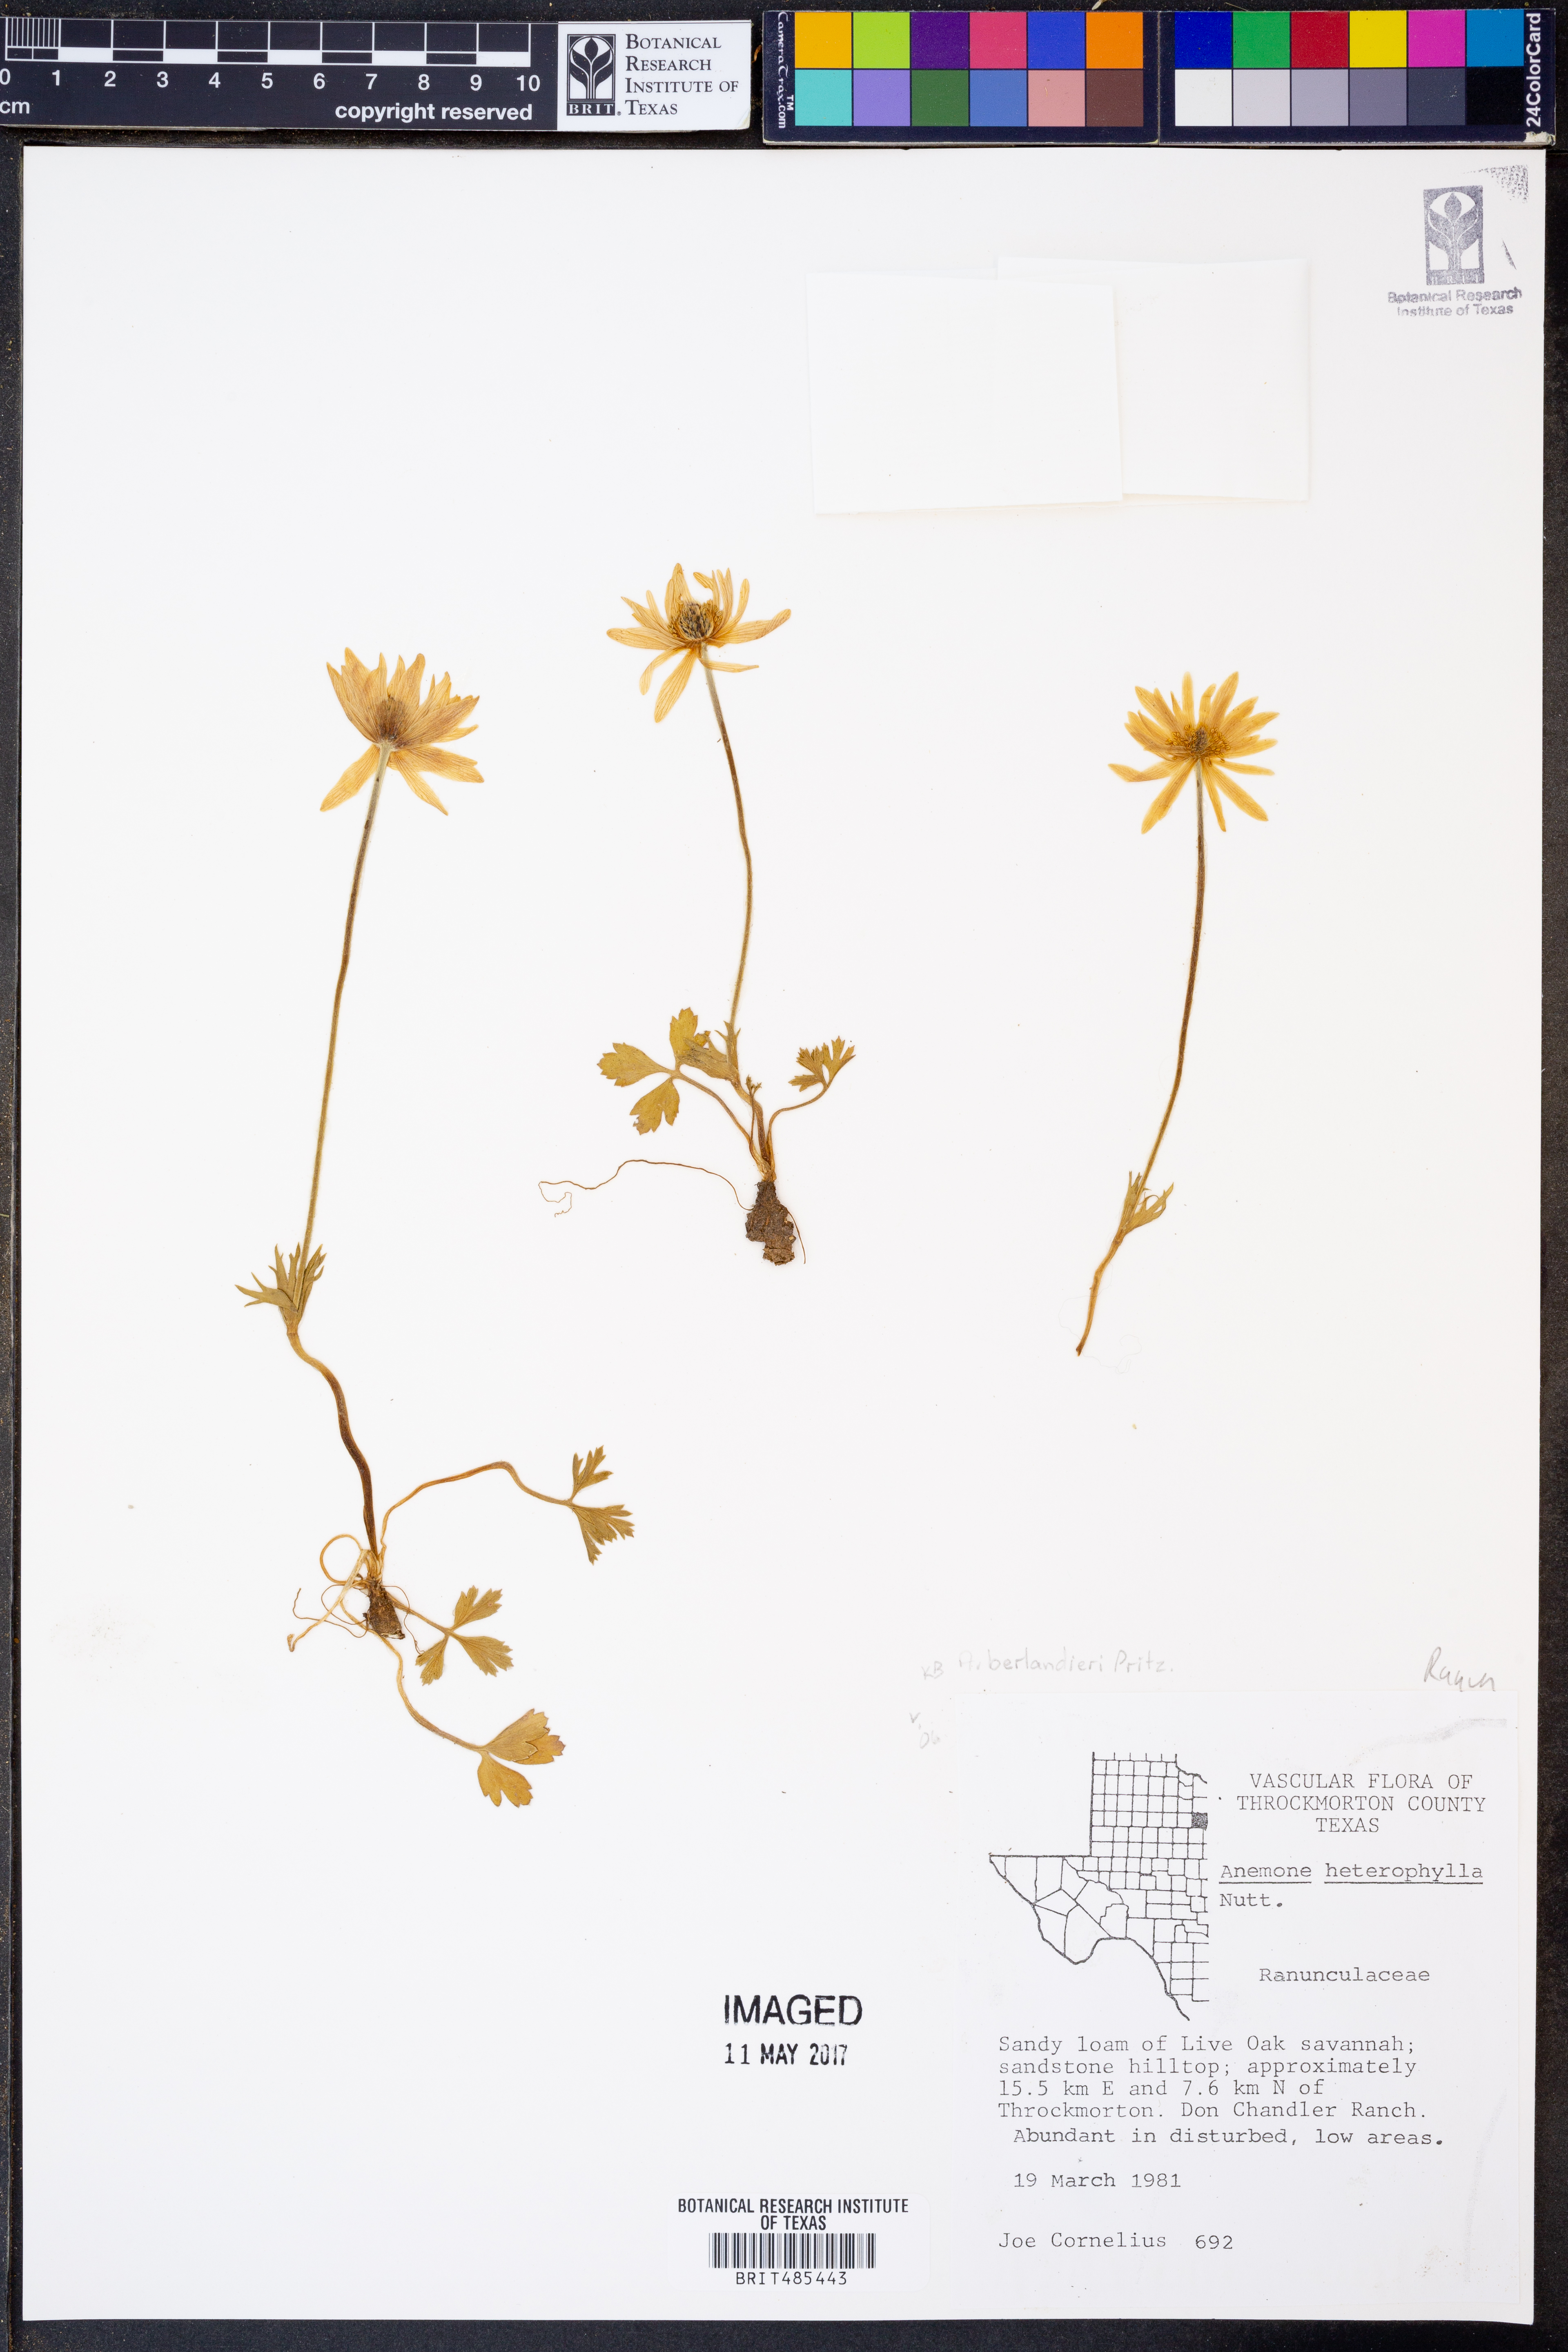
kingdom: Plantae
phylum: Tracheophyta
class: Magnoliopsida
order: Ranunculales
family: Ranunculaceae
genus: Anemone
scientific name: Anemone heterophylla
